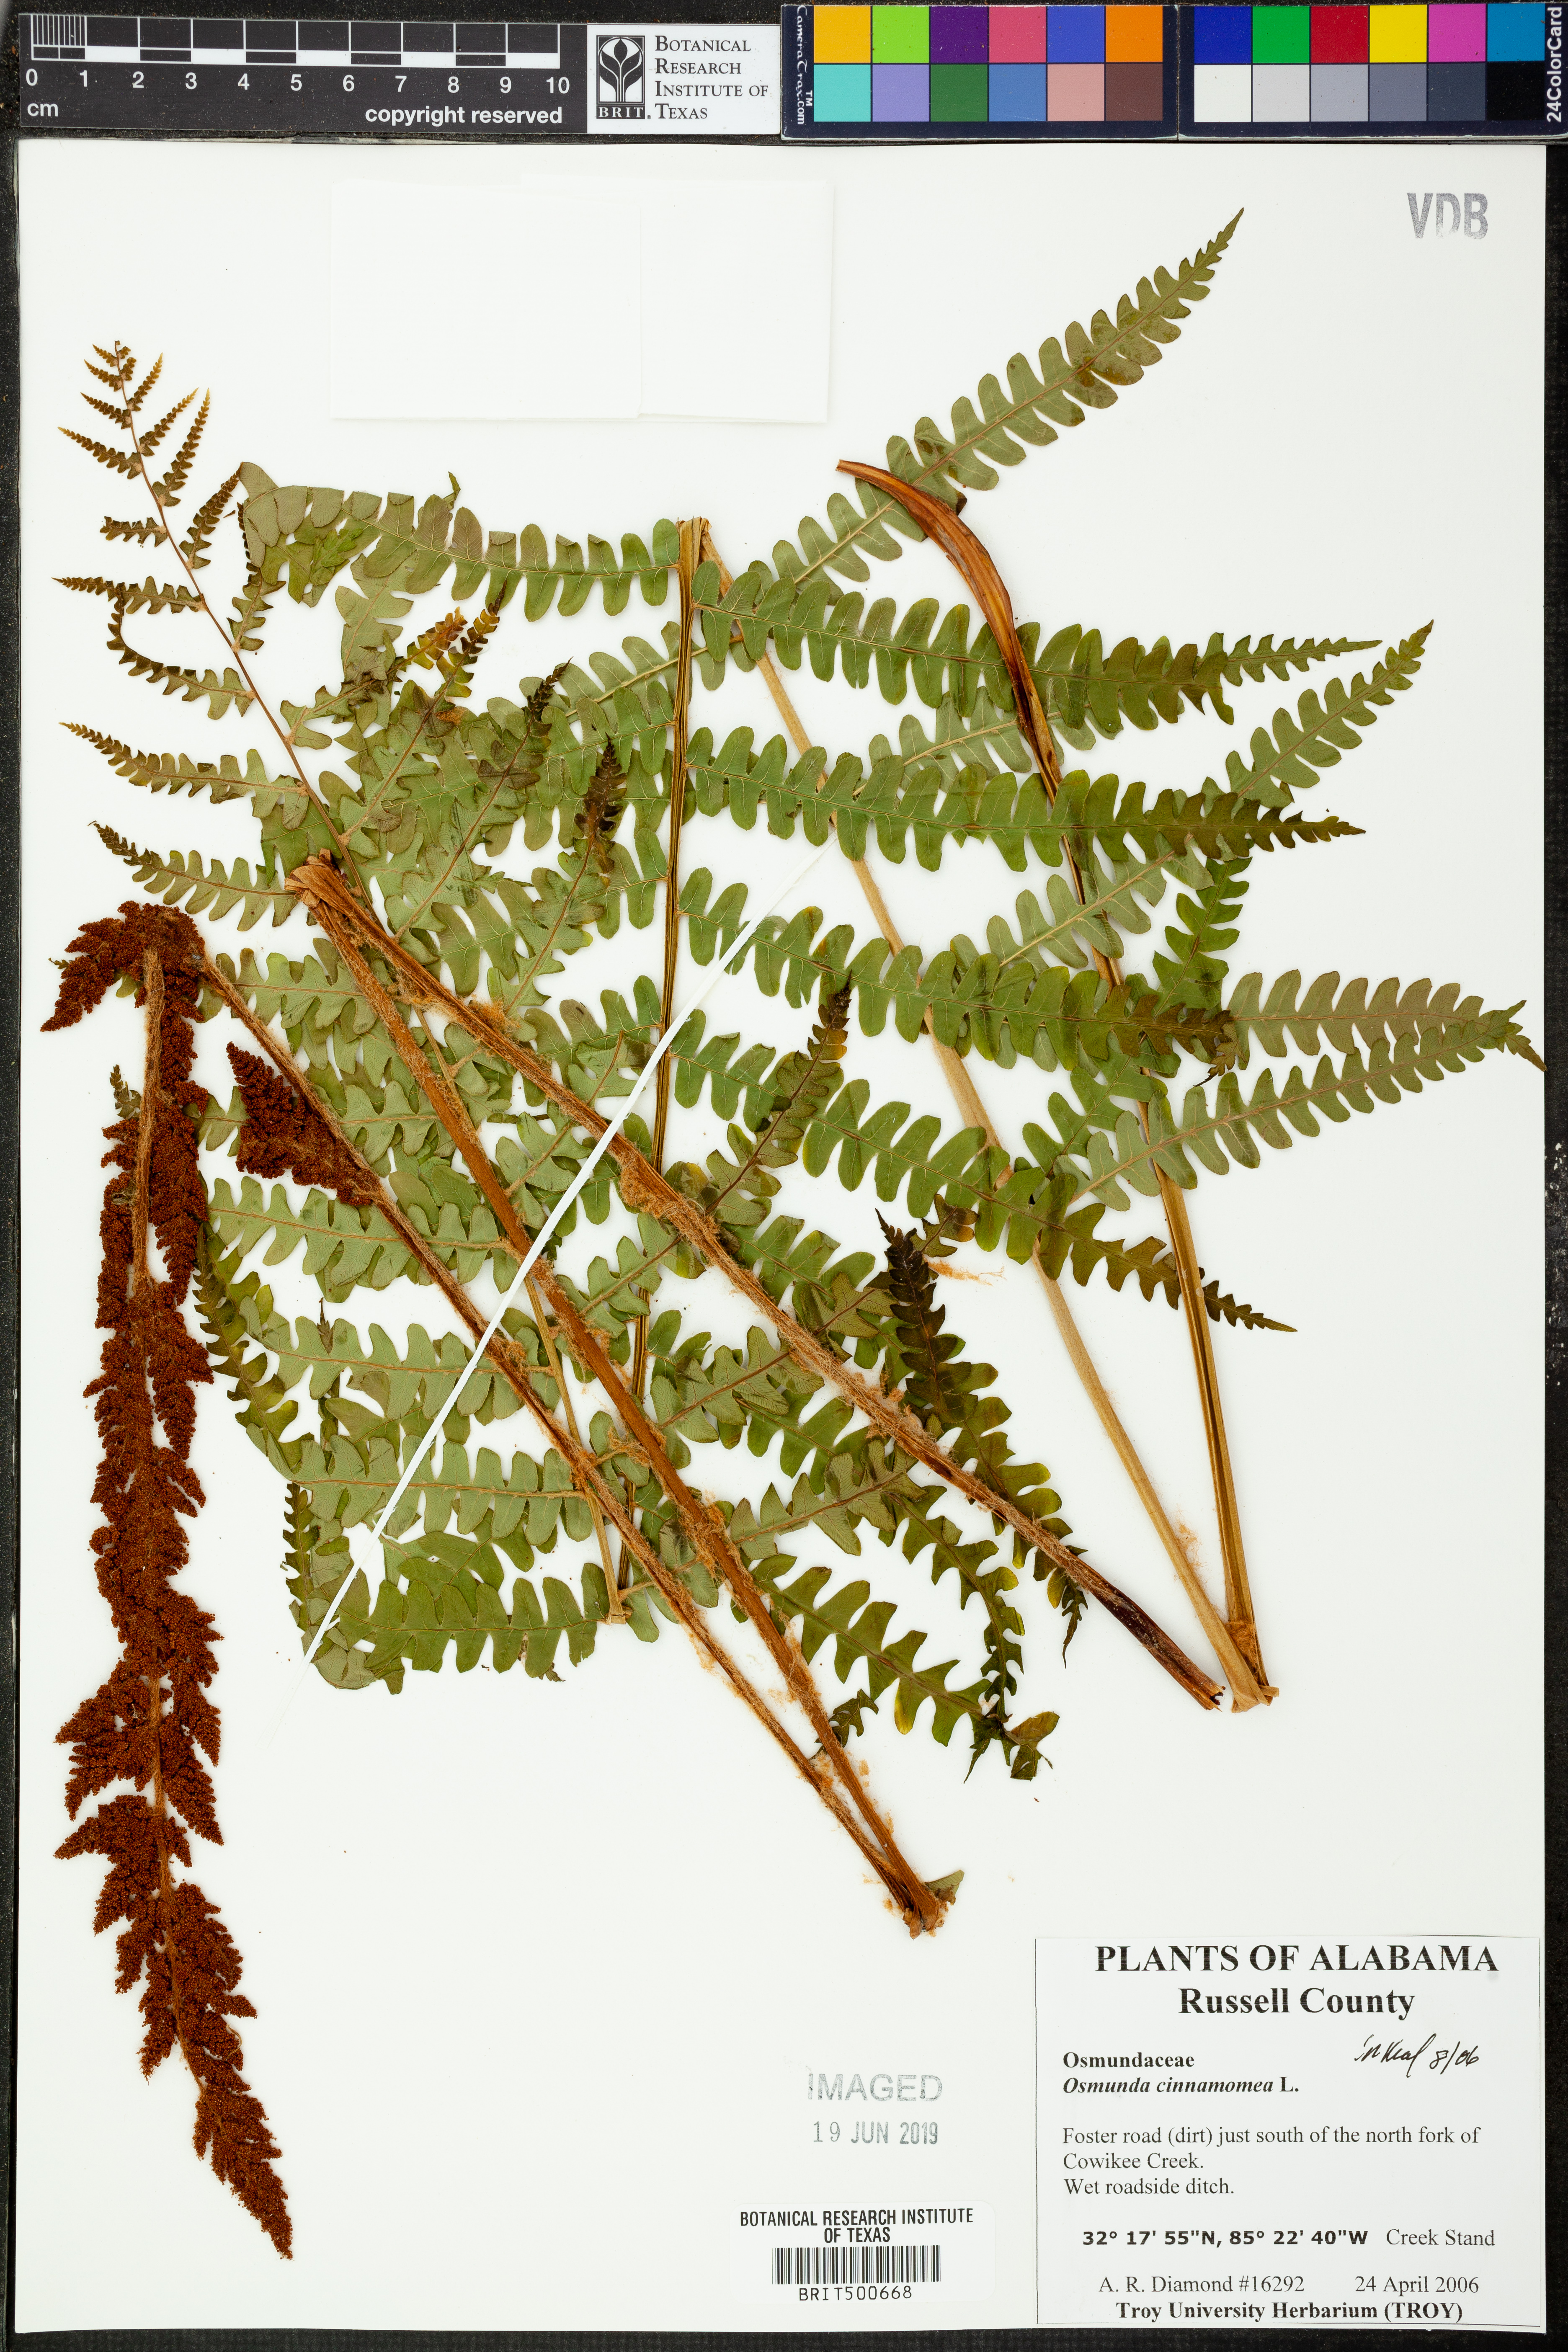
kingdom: Plantae
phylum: Tracheophyta
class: Polypodiopsida
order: Osmundales
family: Osmundaceae
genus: Osmundastrum
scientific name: Osmundastrum cinnamomeum
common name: Cinnamon fern
